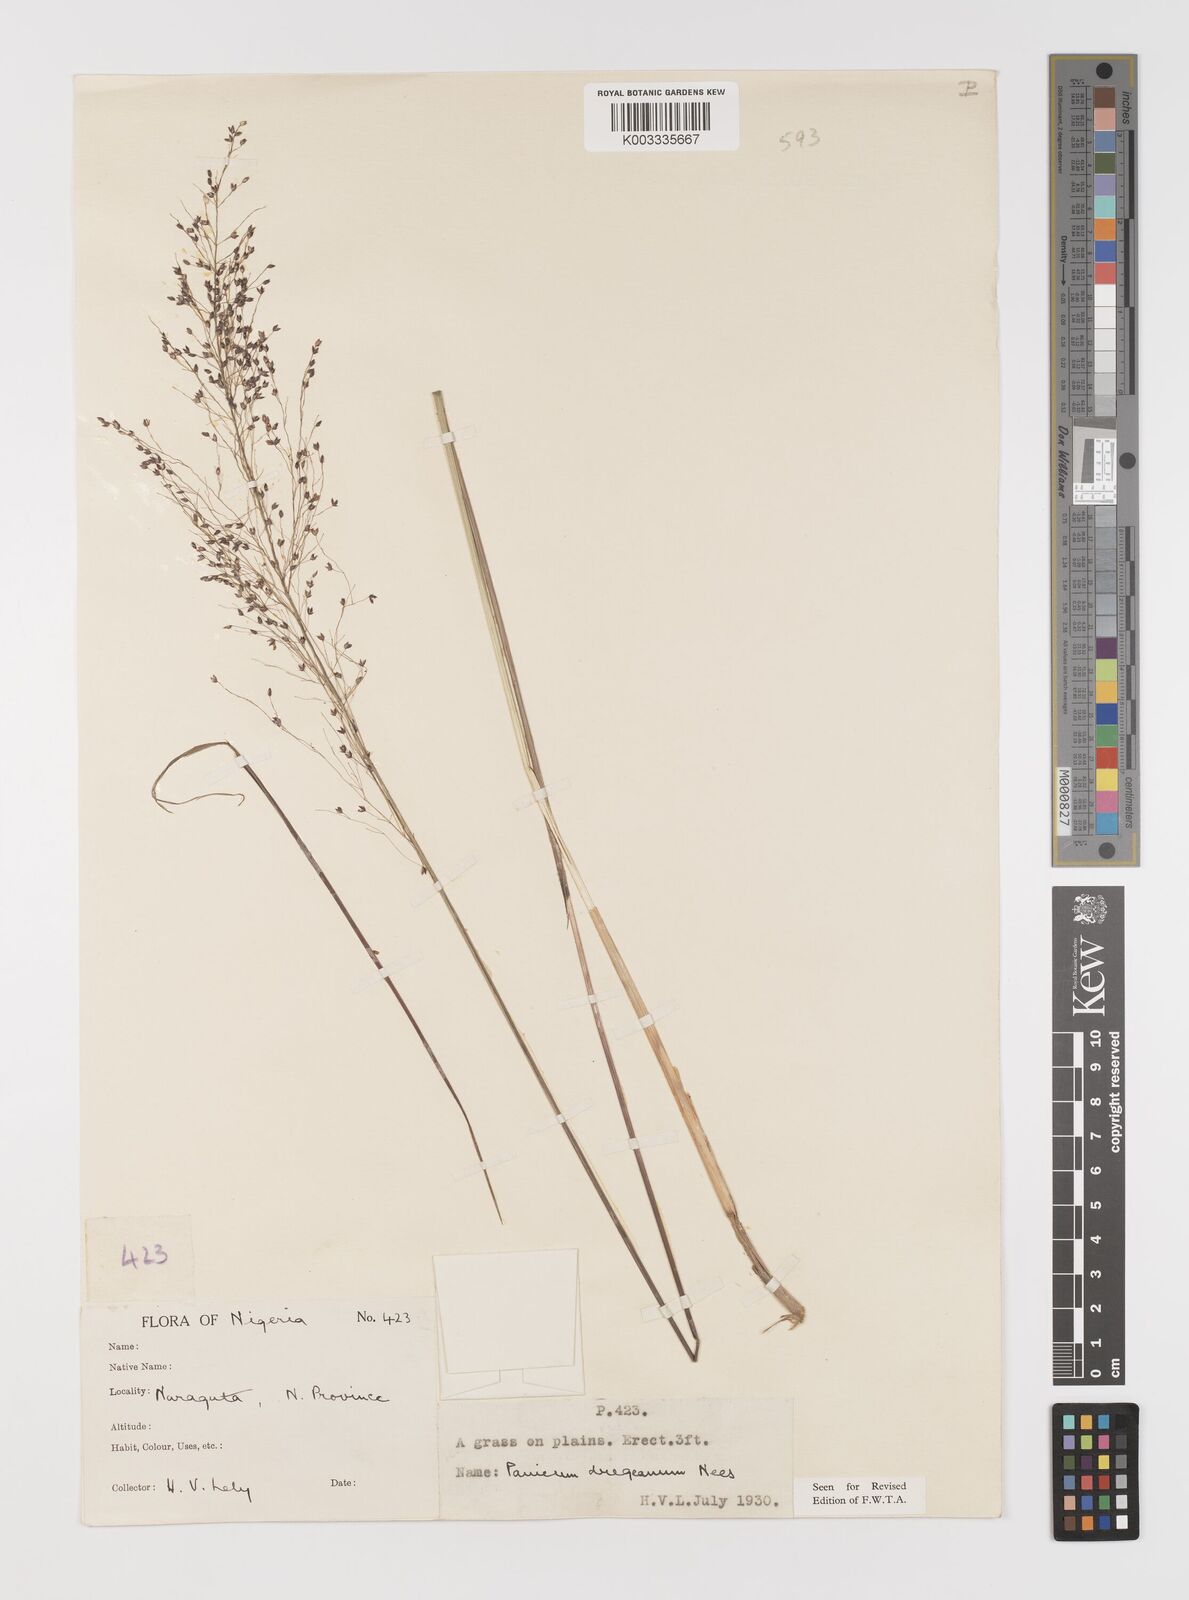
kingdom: Plantae
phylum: Tracheophyta
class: Liliopsida
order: Poales
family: Poaceae
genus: Panicum
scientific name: Panicum dregeanum
